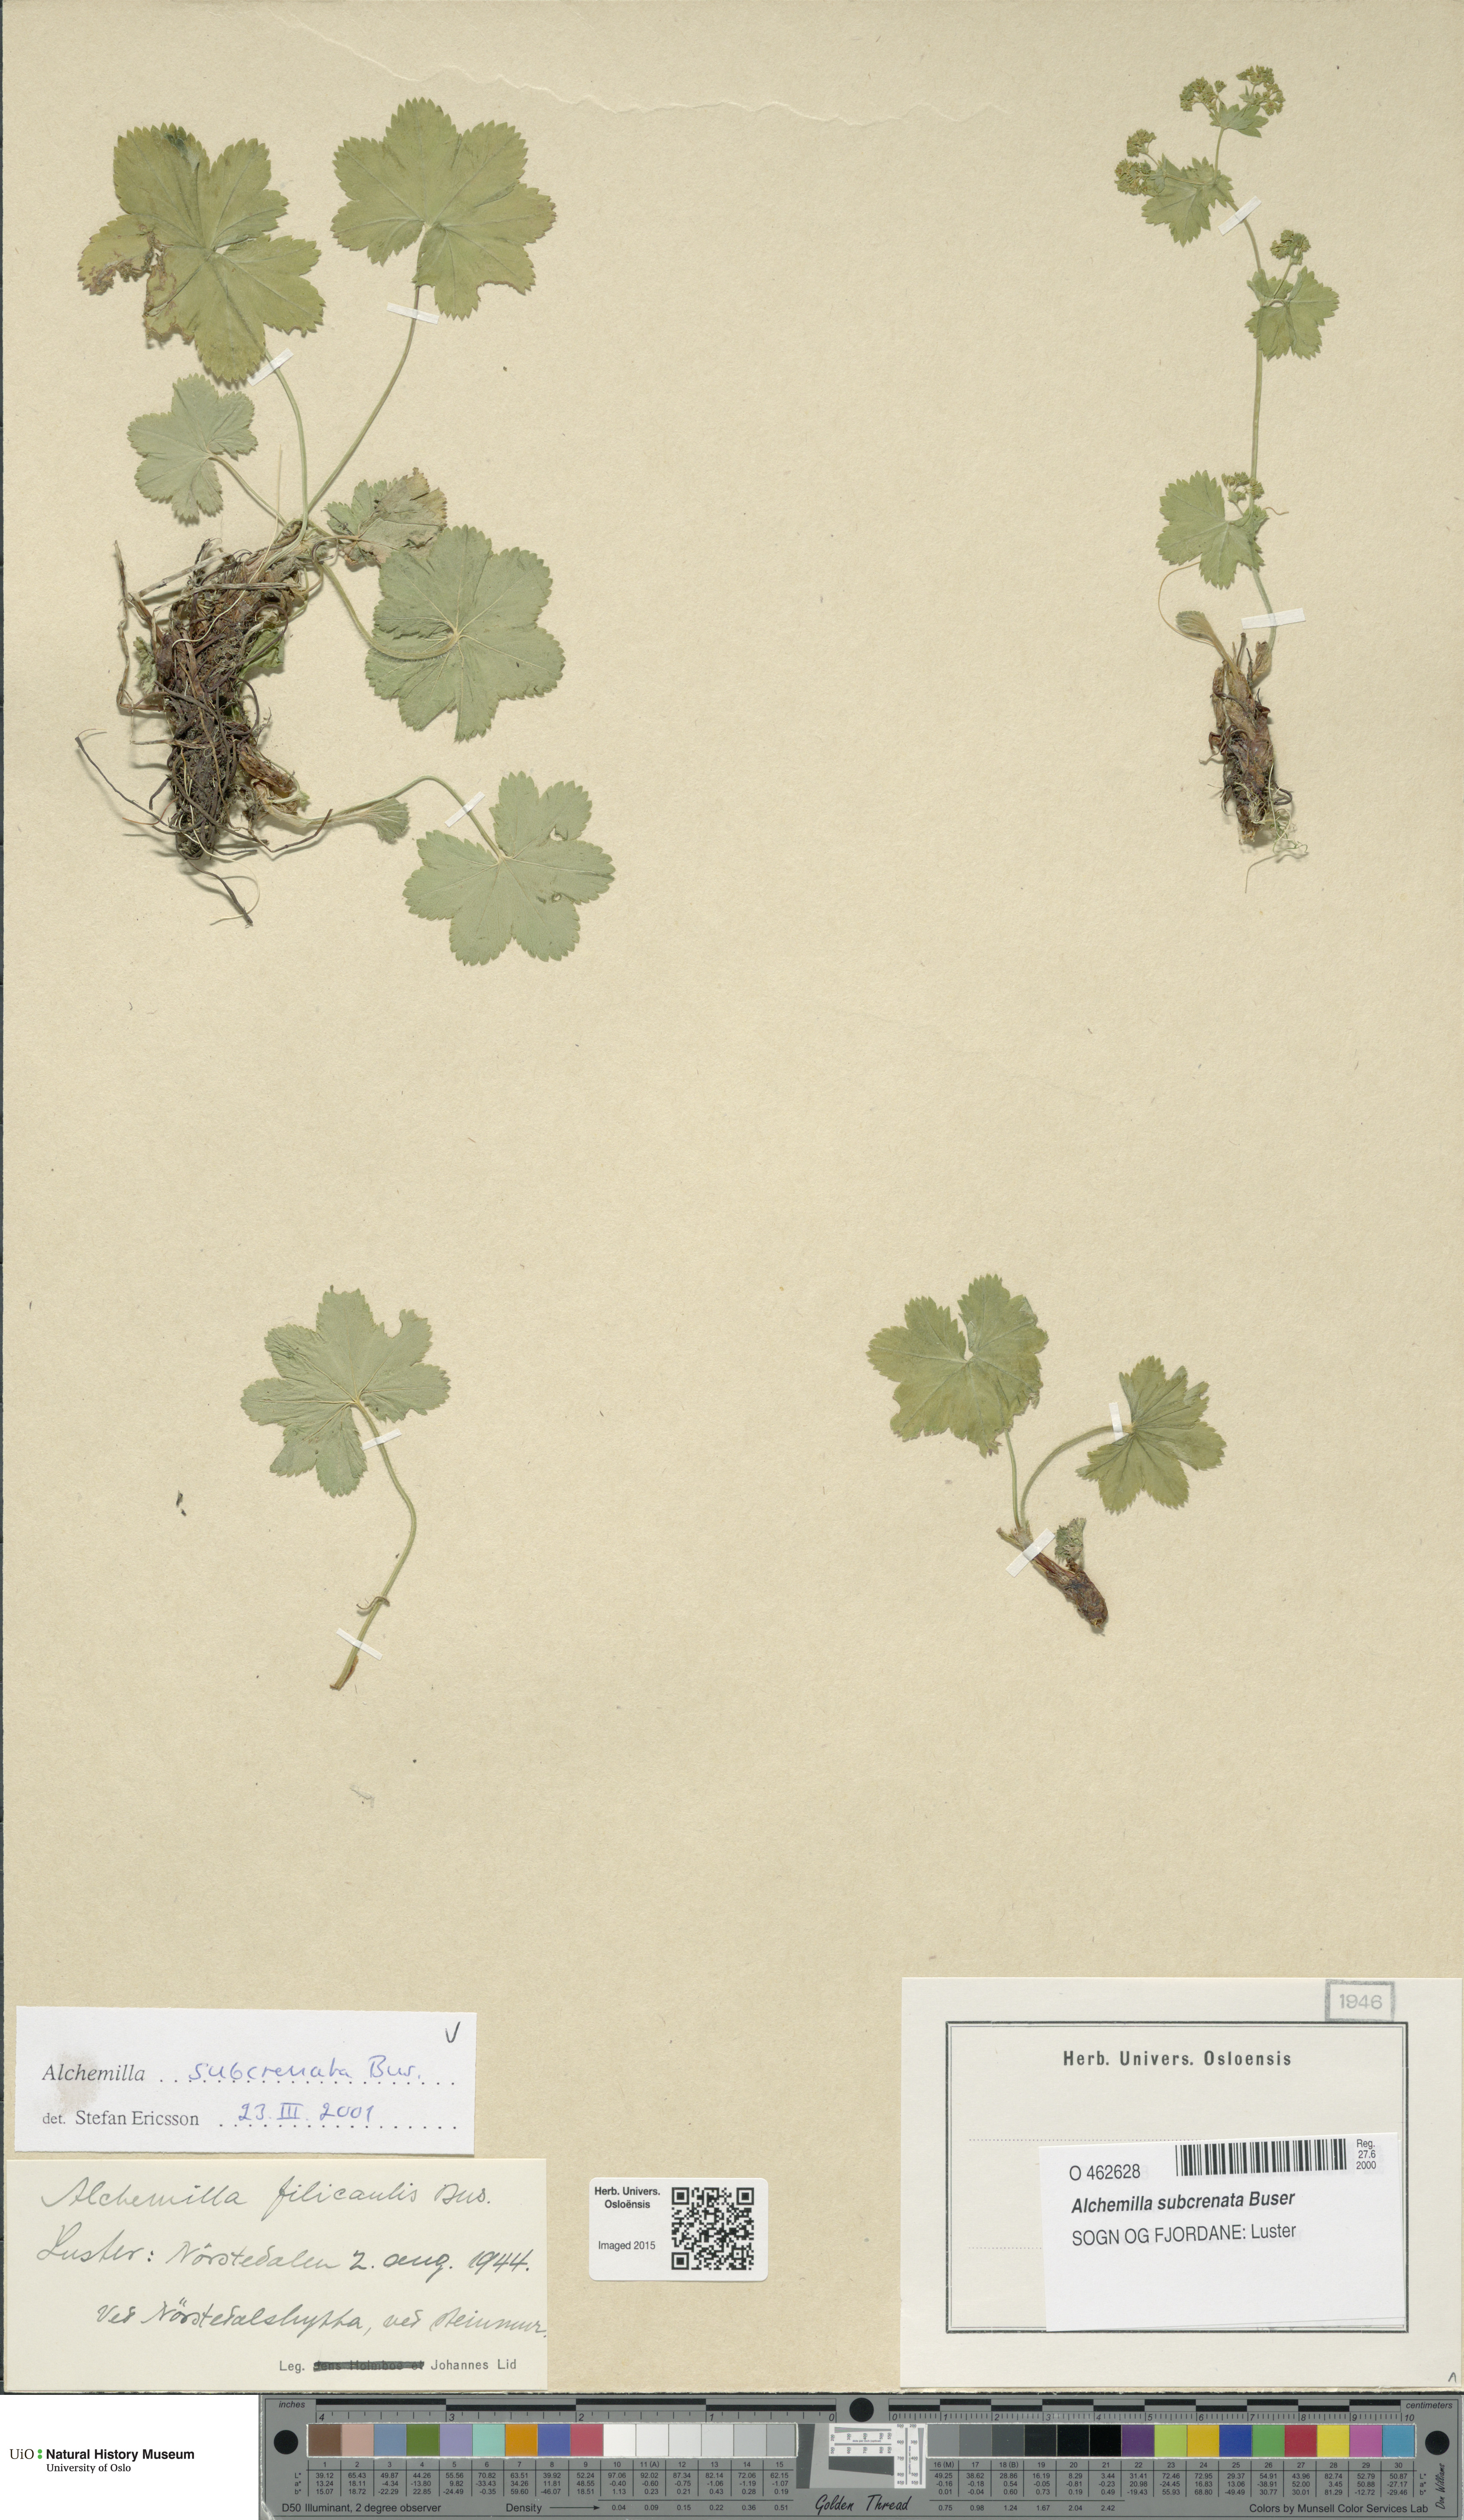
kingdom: Plantae
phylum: Tracheophyta
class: Magnoliopsida
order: Rosales
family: Rosaceae
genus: Alchemilla
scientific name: Alchemilla subcrenata
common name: Broadtooth lady's mantle
